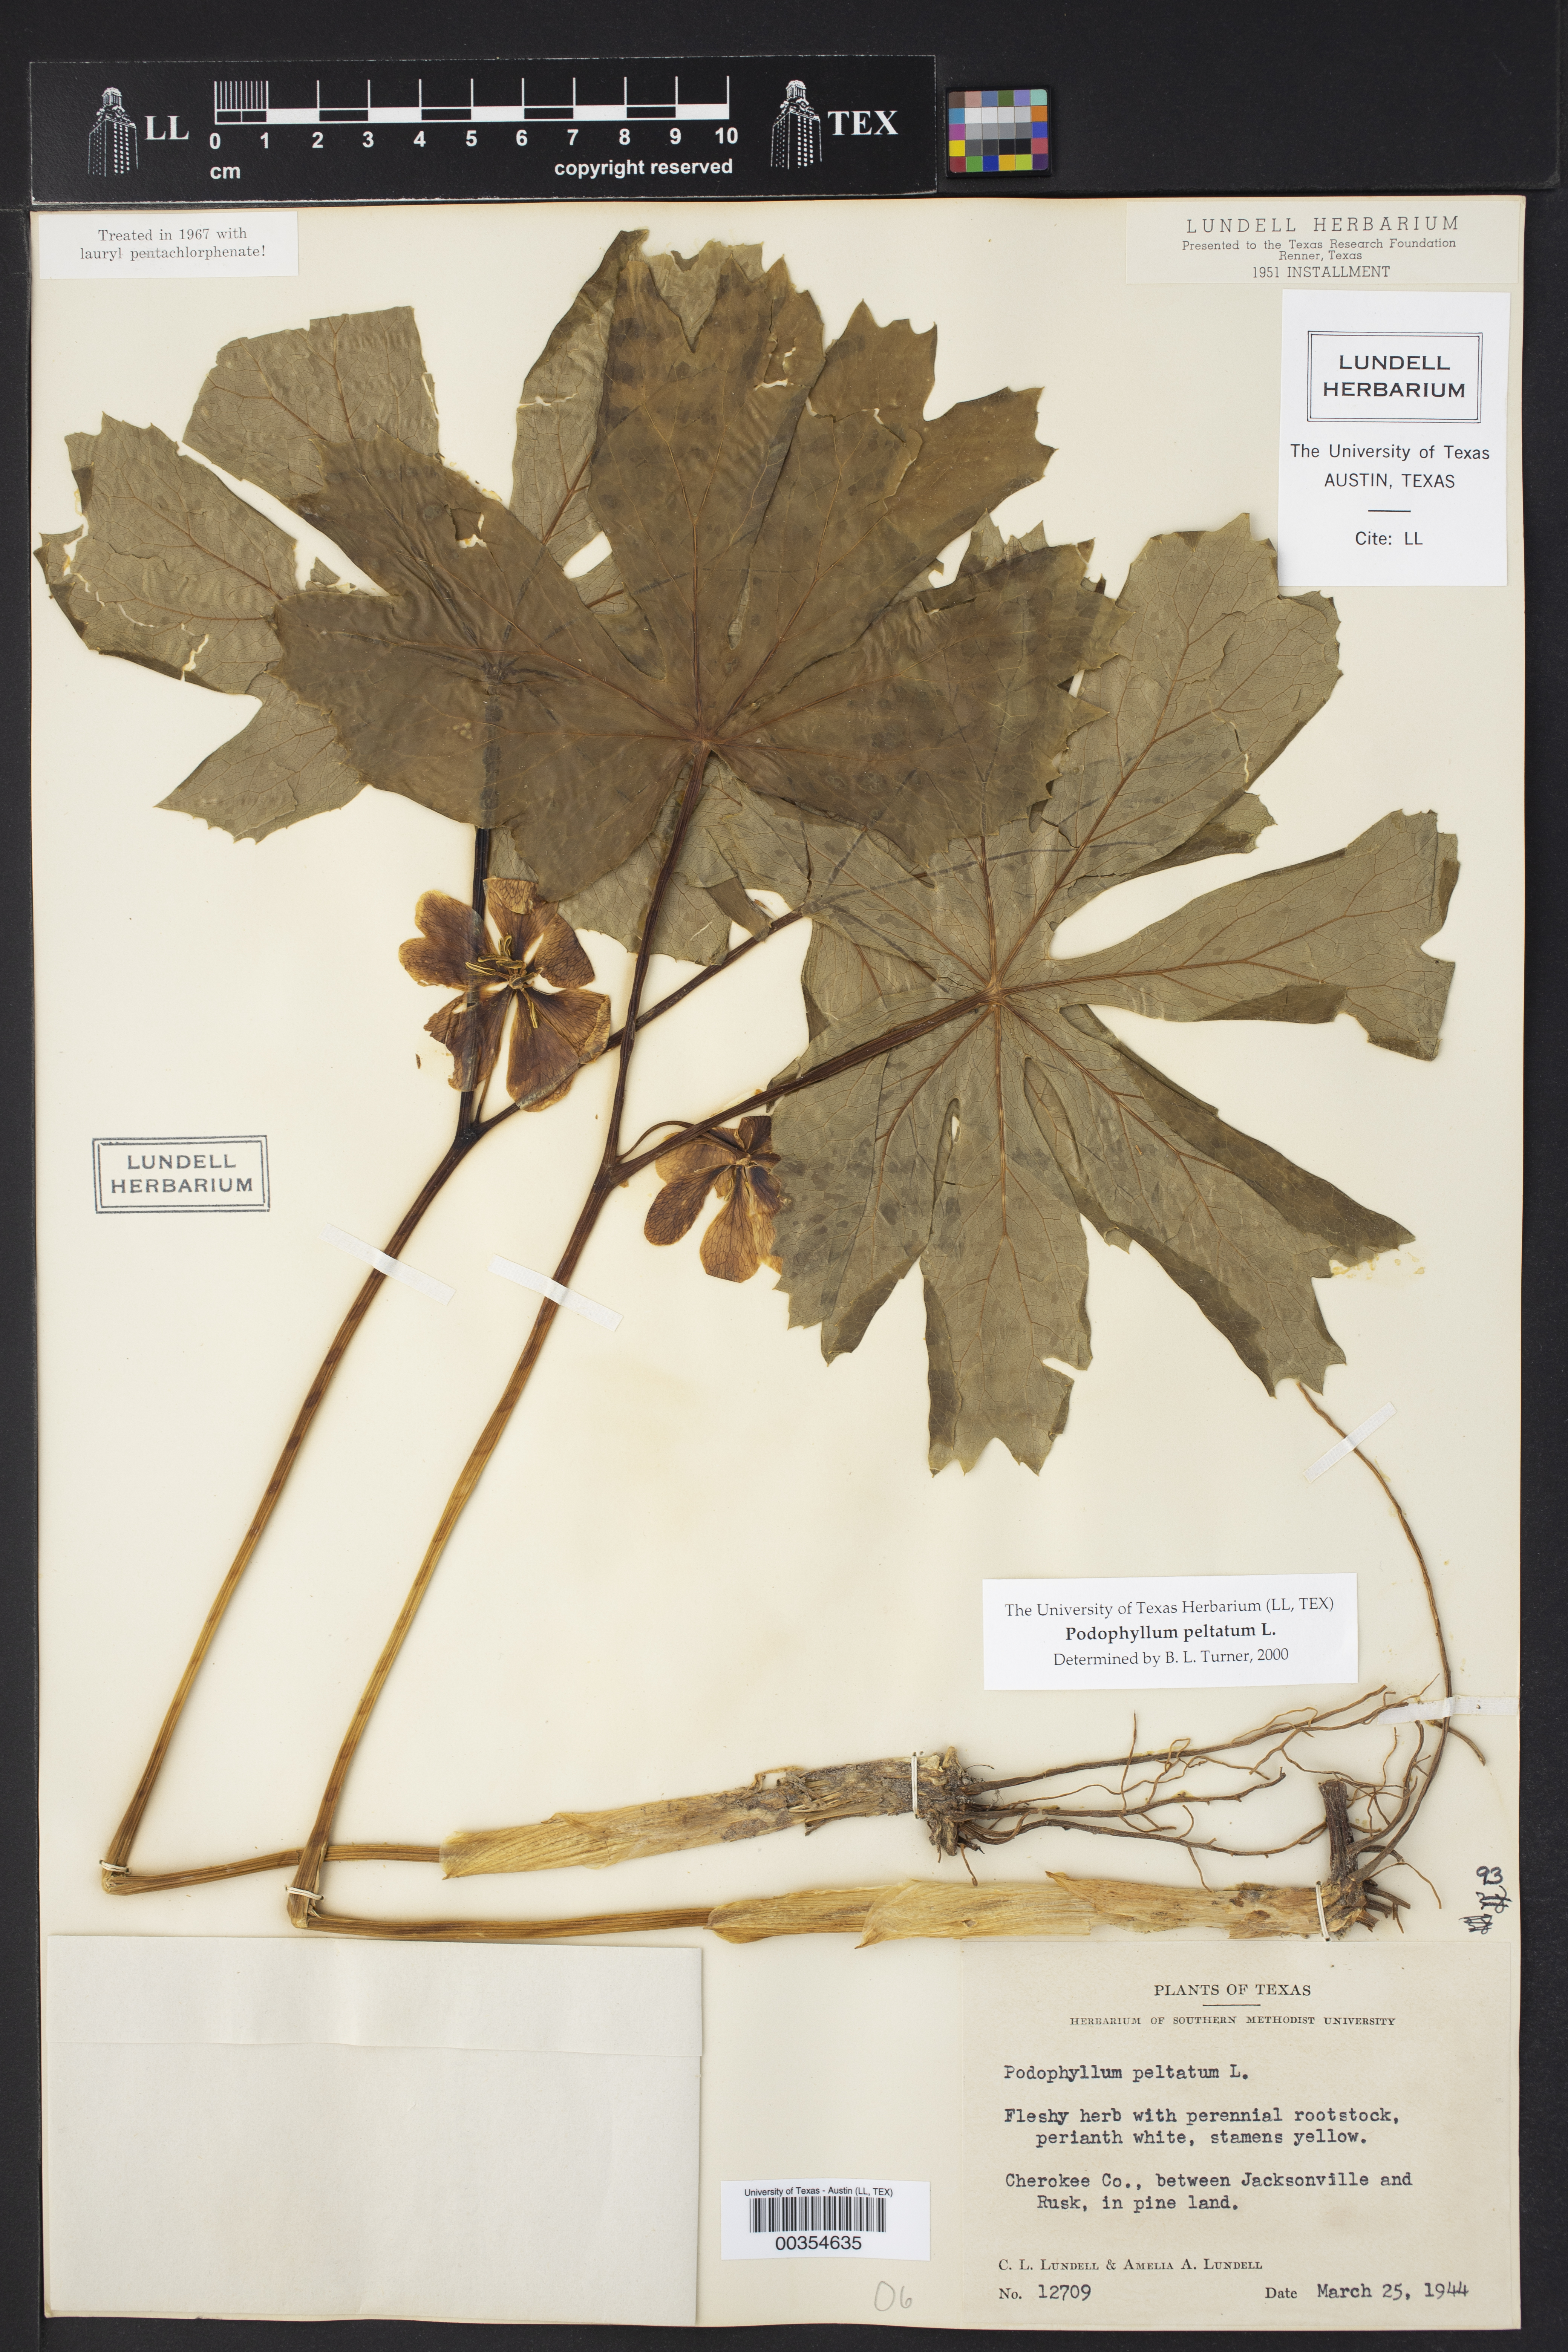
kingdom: Plantae
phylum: Tracheophyta
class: Magnoliopsida
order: Ranunculales
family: Berberidaceae
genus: Podophyllum
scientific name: Podophyllum peltatum
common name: Wild mandrake
